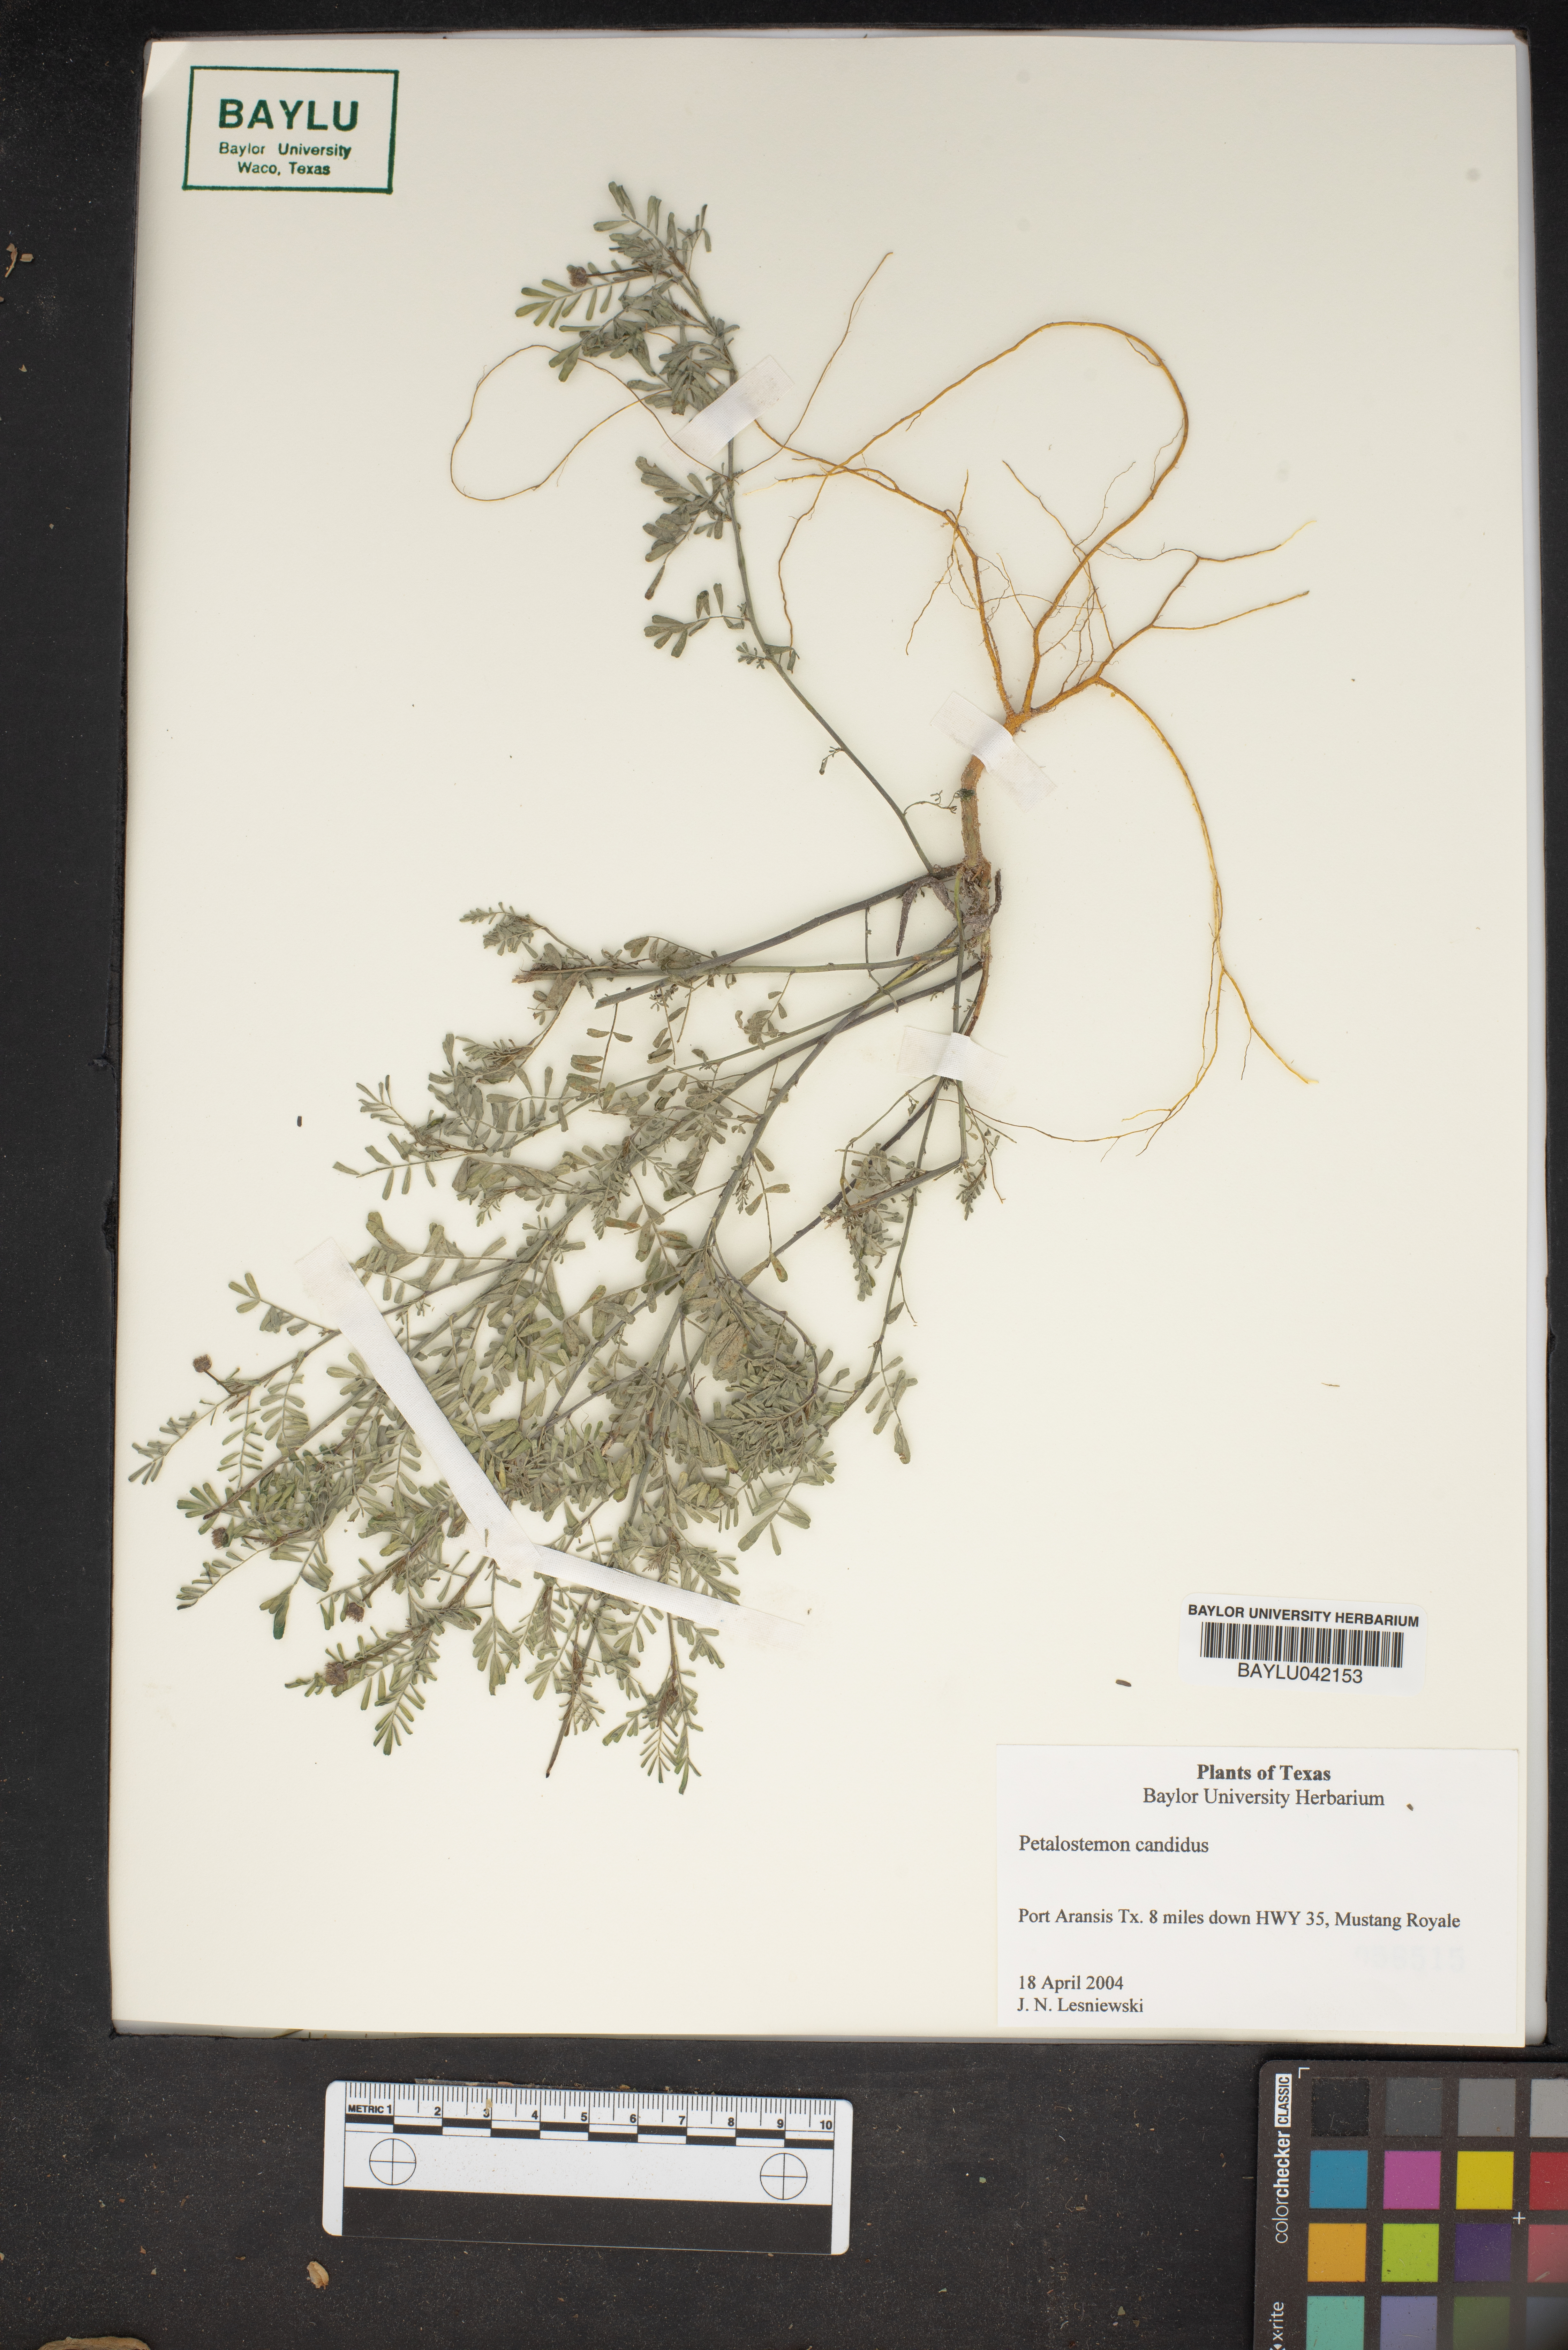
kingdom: Plantae
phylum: Tracheophyta
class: Magnoliopsida
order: Fabales
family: Fabaceae
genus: Dalea
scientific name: Dalea candida
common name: White prairie-clover
